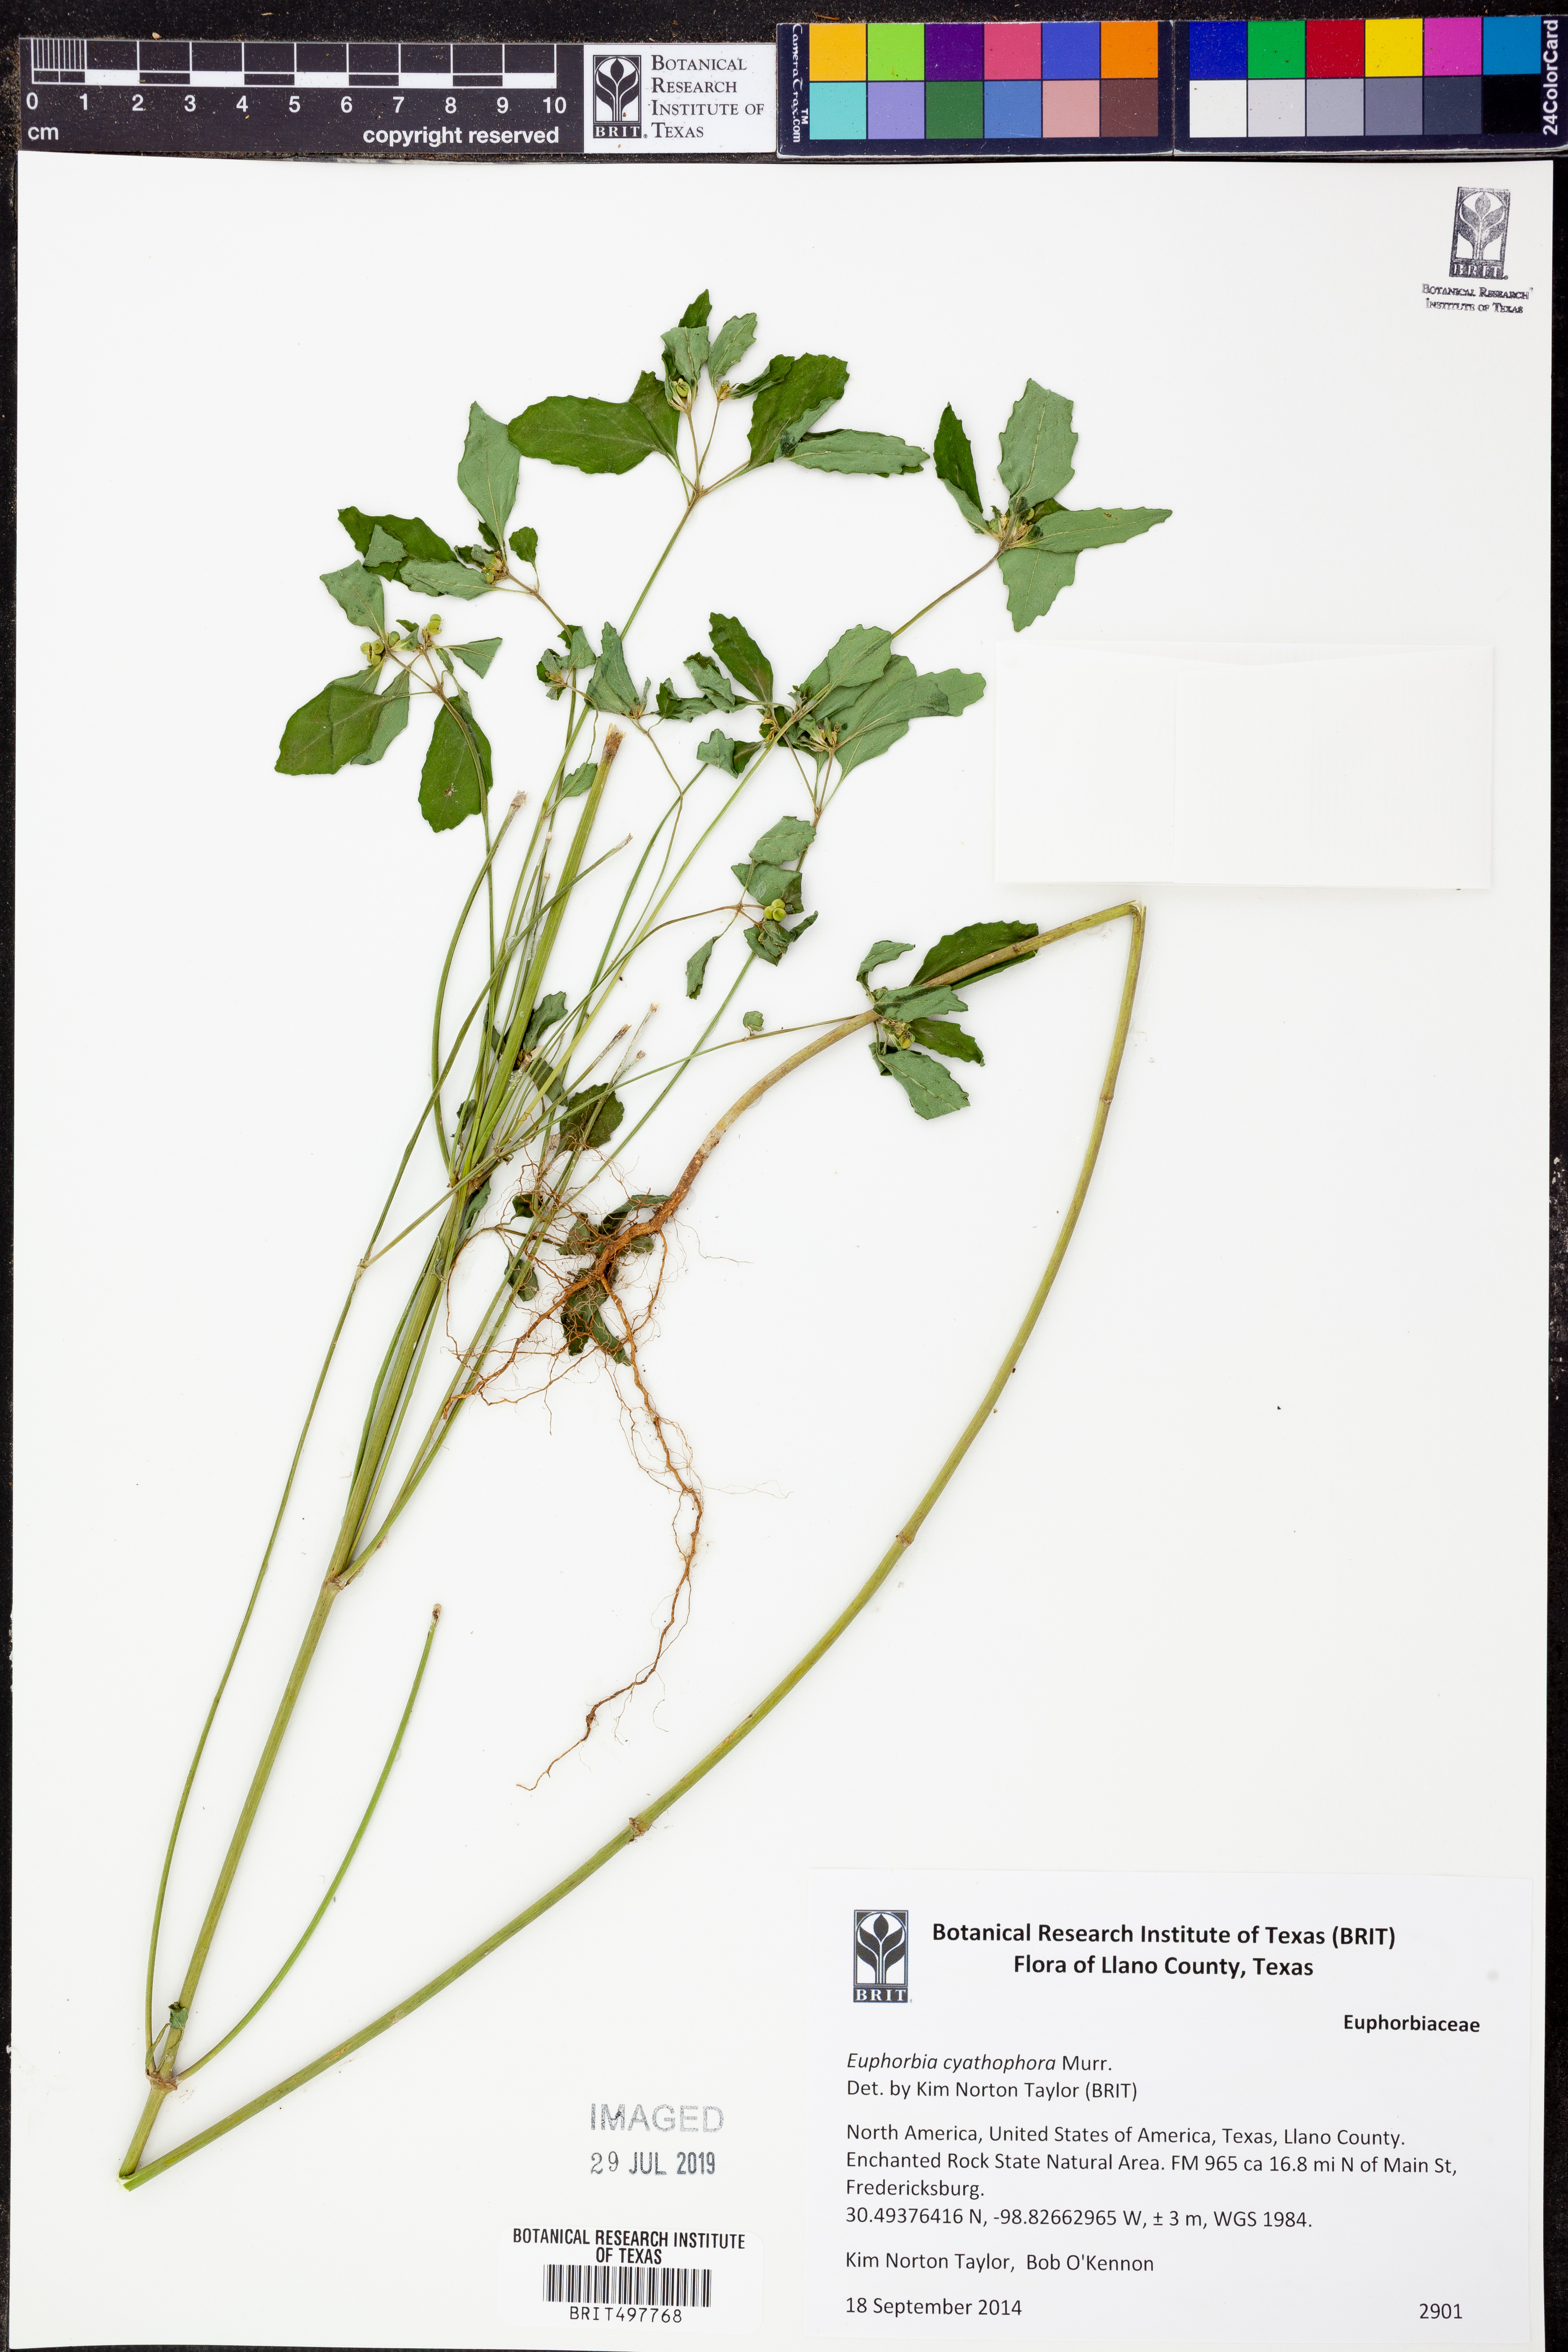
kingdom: Plantae
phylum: Tracheophyta
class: Magnoliopsida
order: Malpighiales
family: Euphorbiaceae
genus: Euphorbia
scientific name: Euphorbia heterophylla
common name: Mexican fireplant
